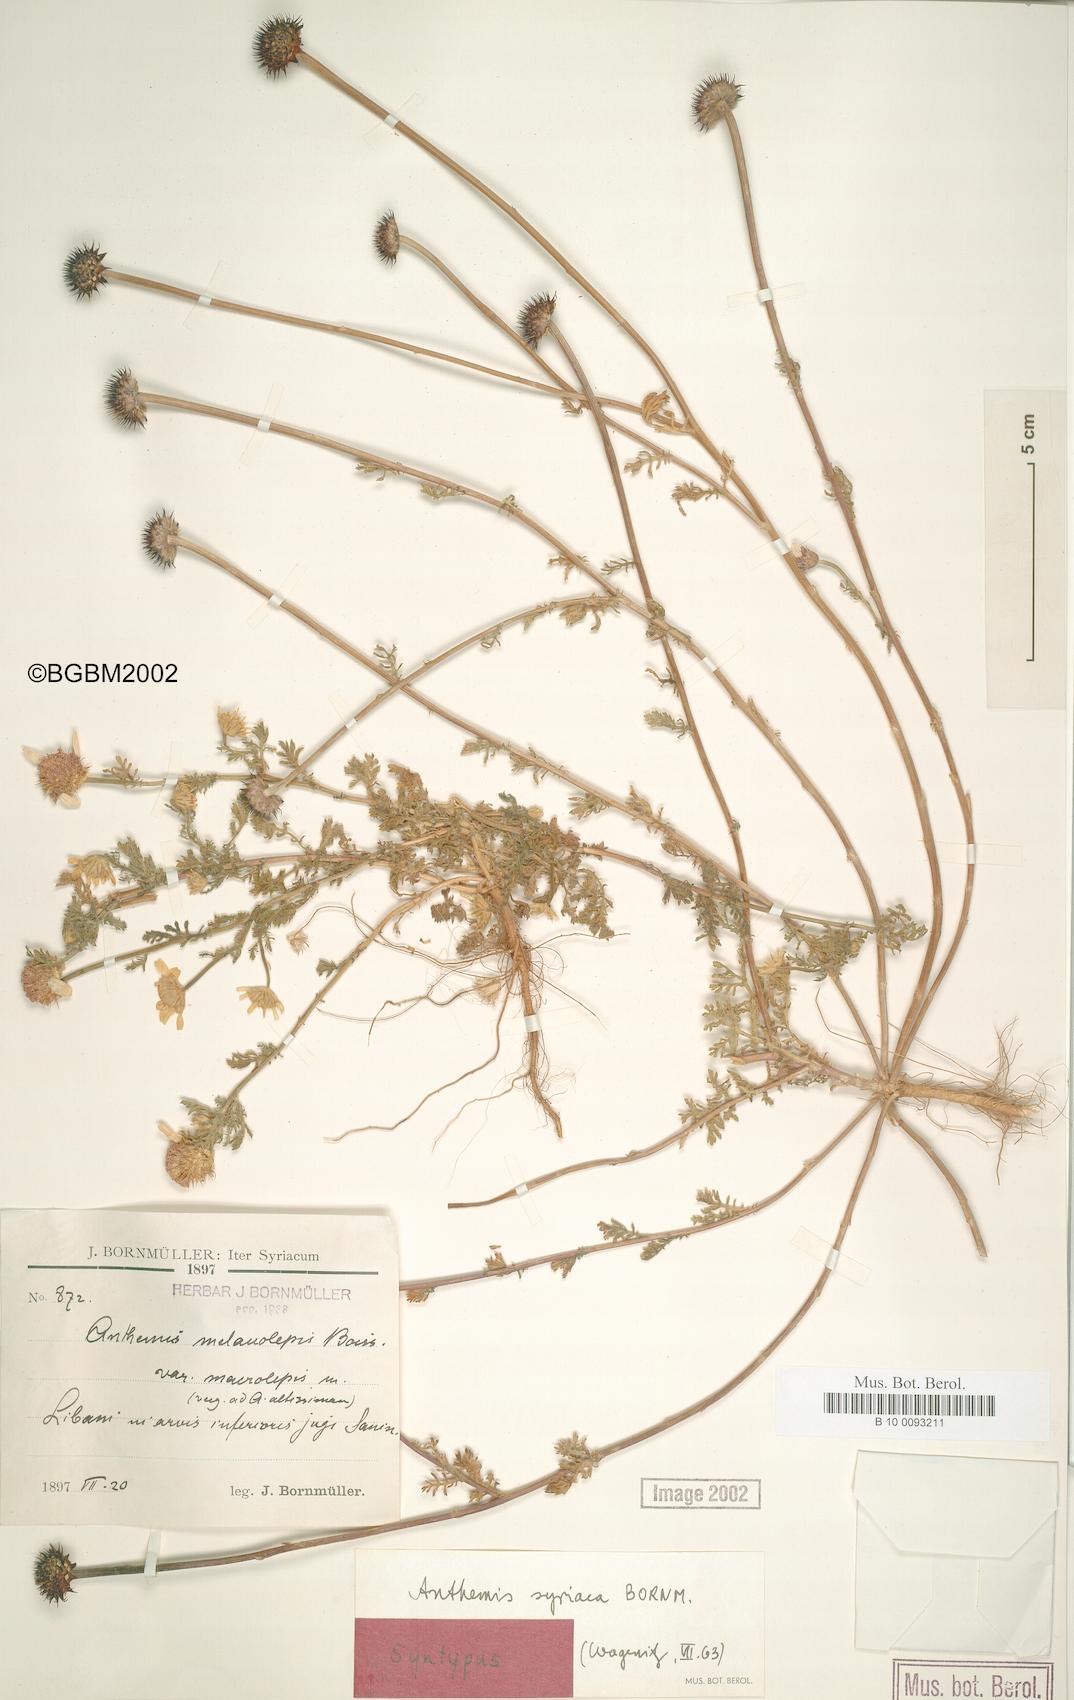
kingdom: Plantae
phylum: Tracheophyta
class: Magnoliopsida
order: Asterales
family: Asteraceae
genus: Cota
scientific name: Cota palaestina
